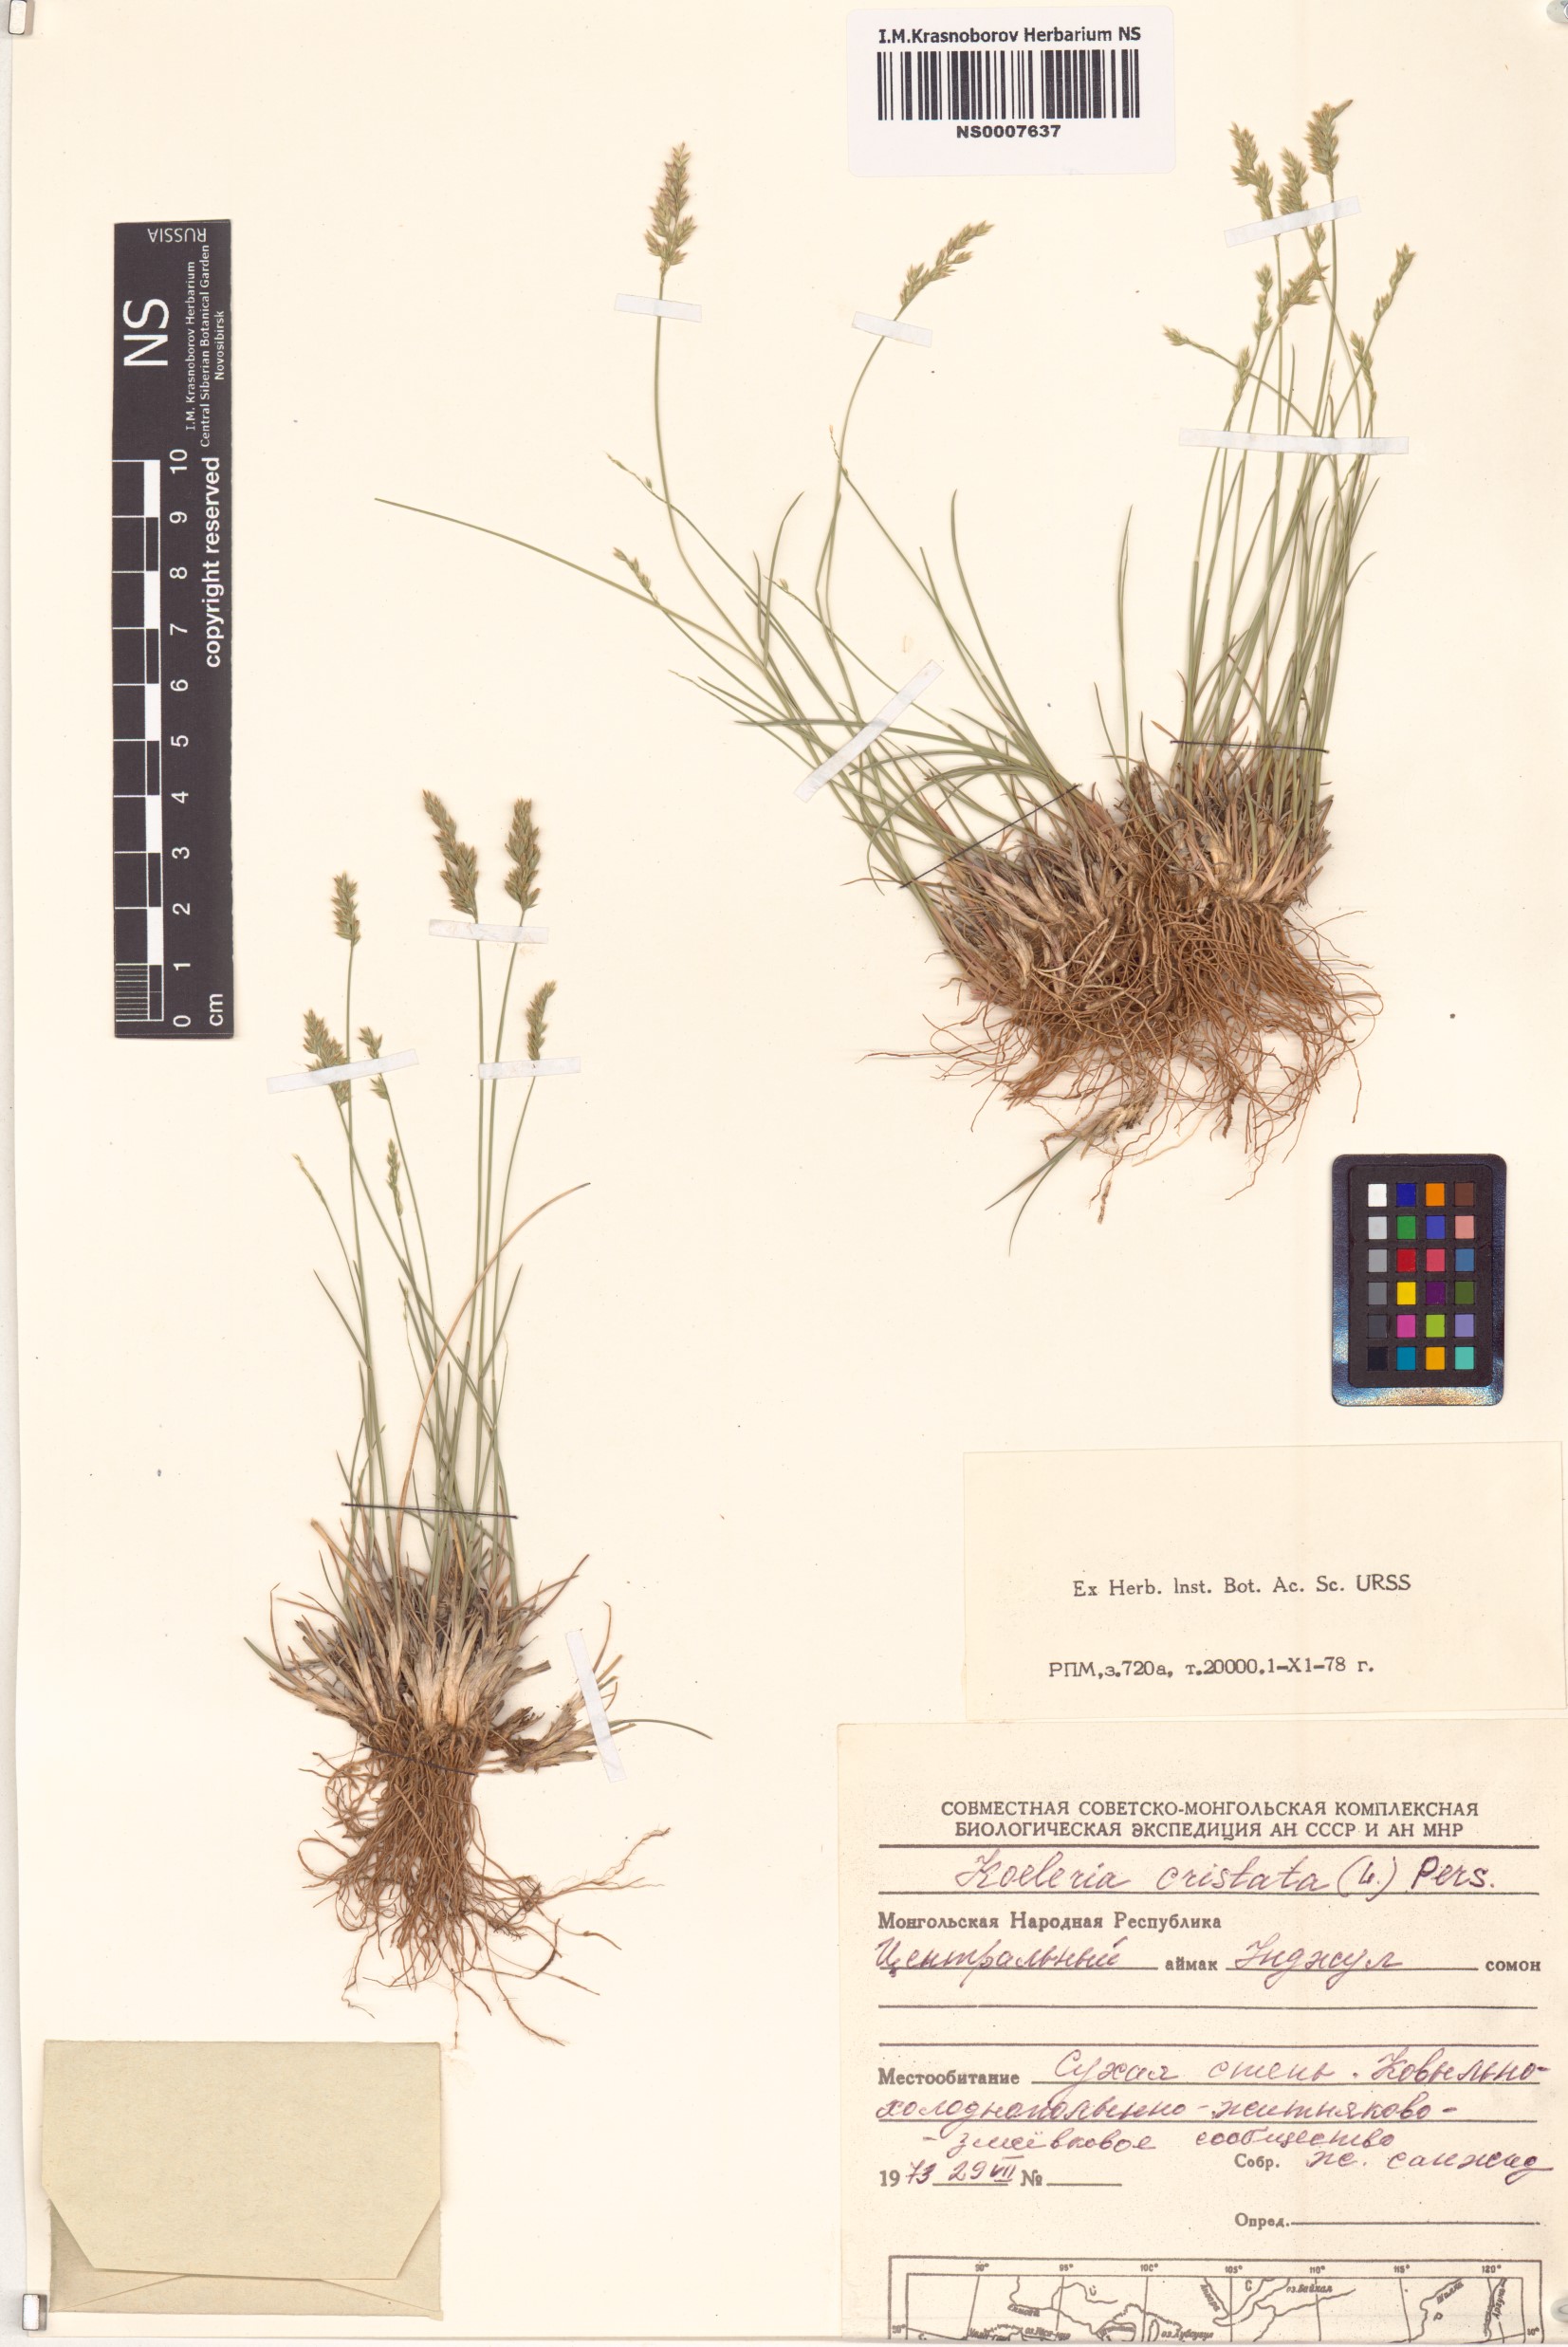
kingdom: Plantae
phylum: Tracheophyta
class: Liliopsida
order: Poales
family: Poaceae
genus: Rostraria
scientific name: Rostraria cristata
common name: Mediterranean hair-grass
